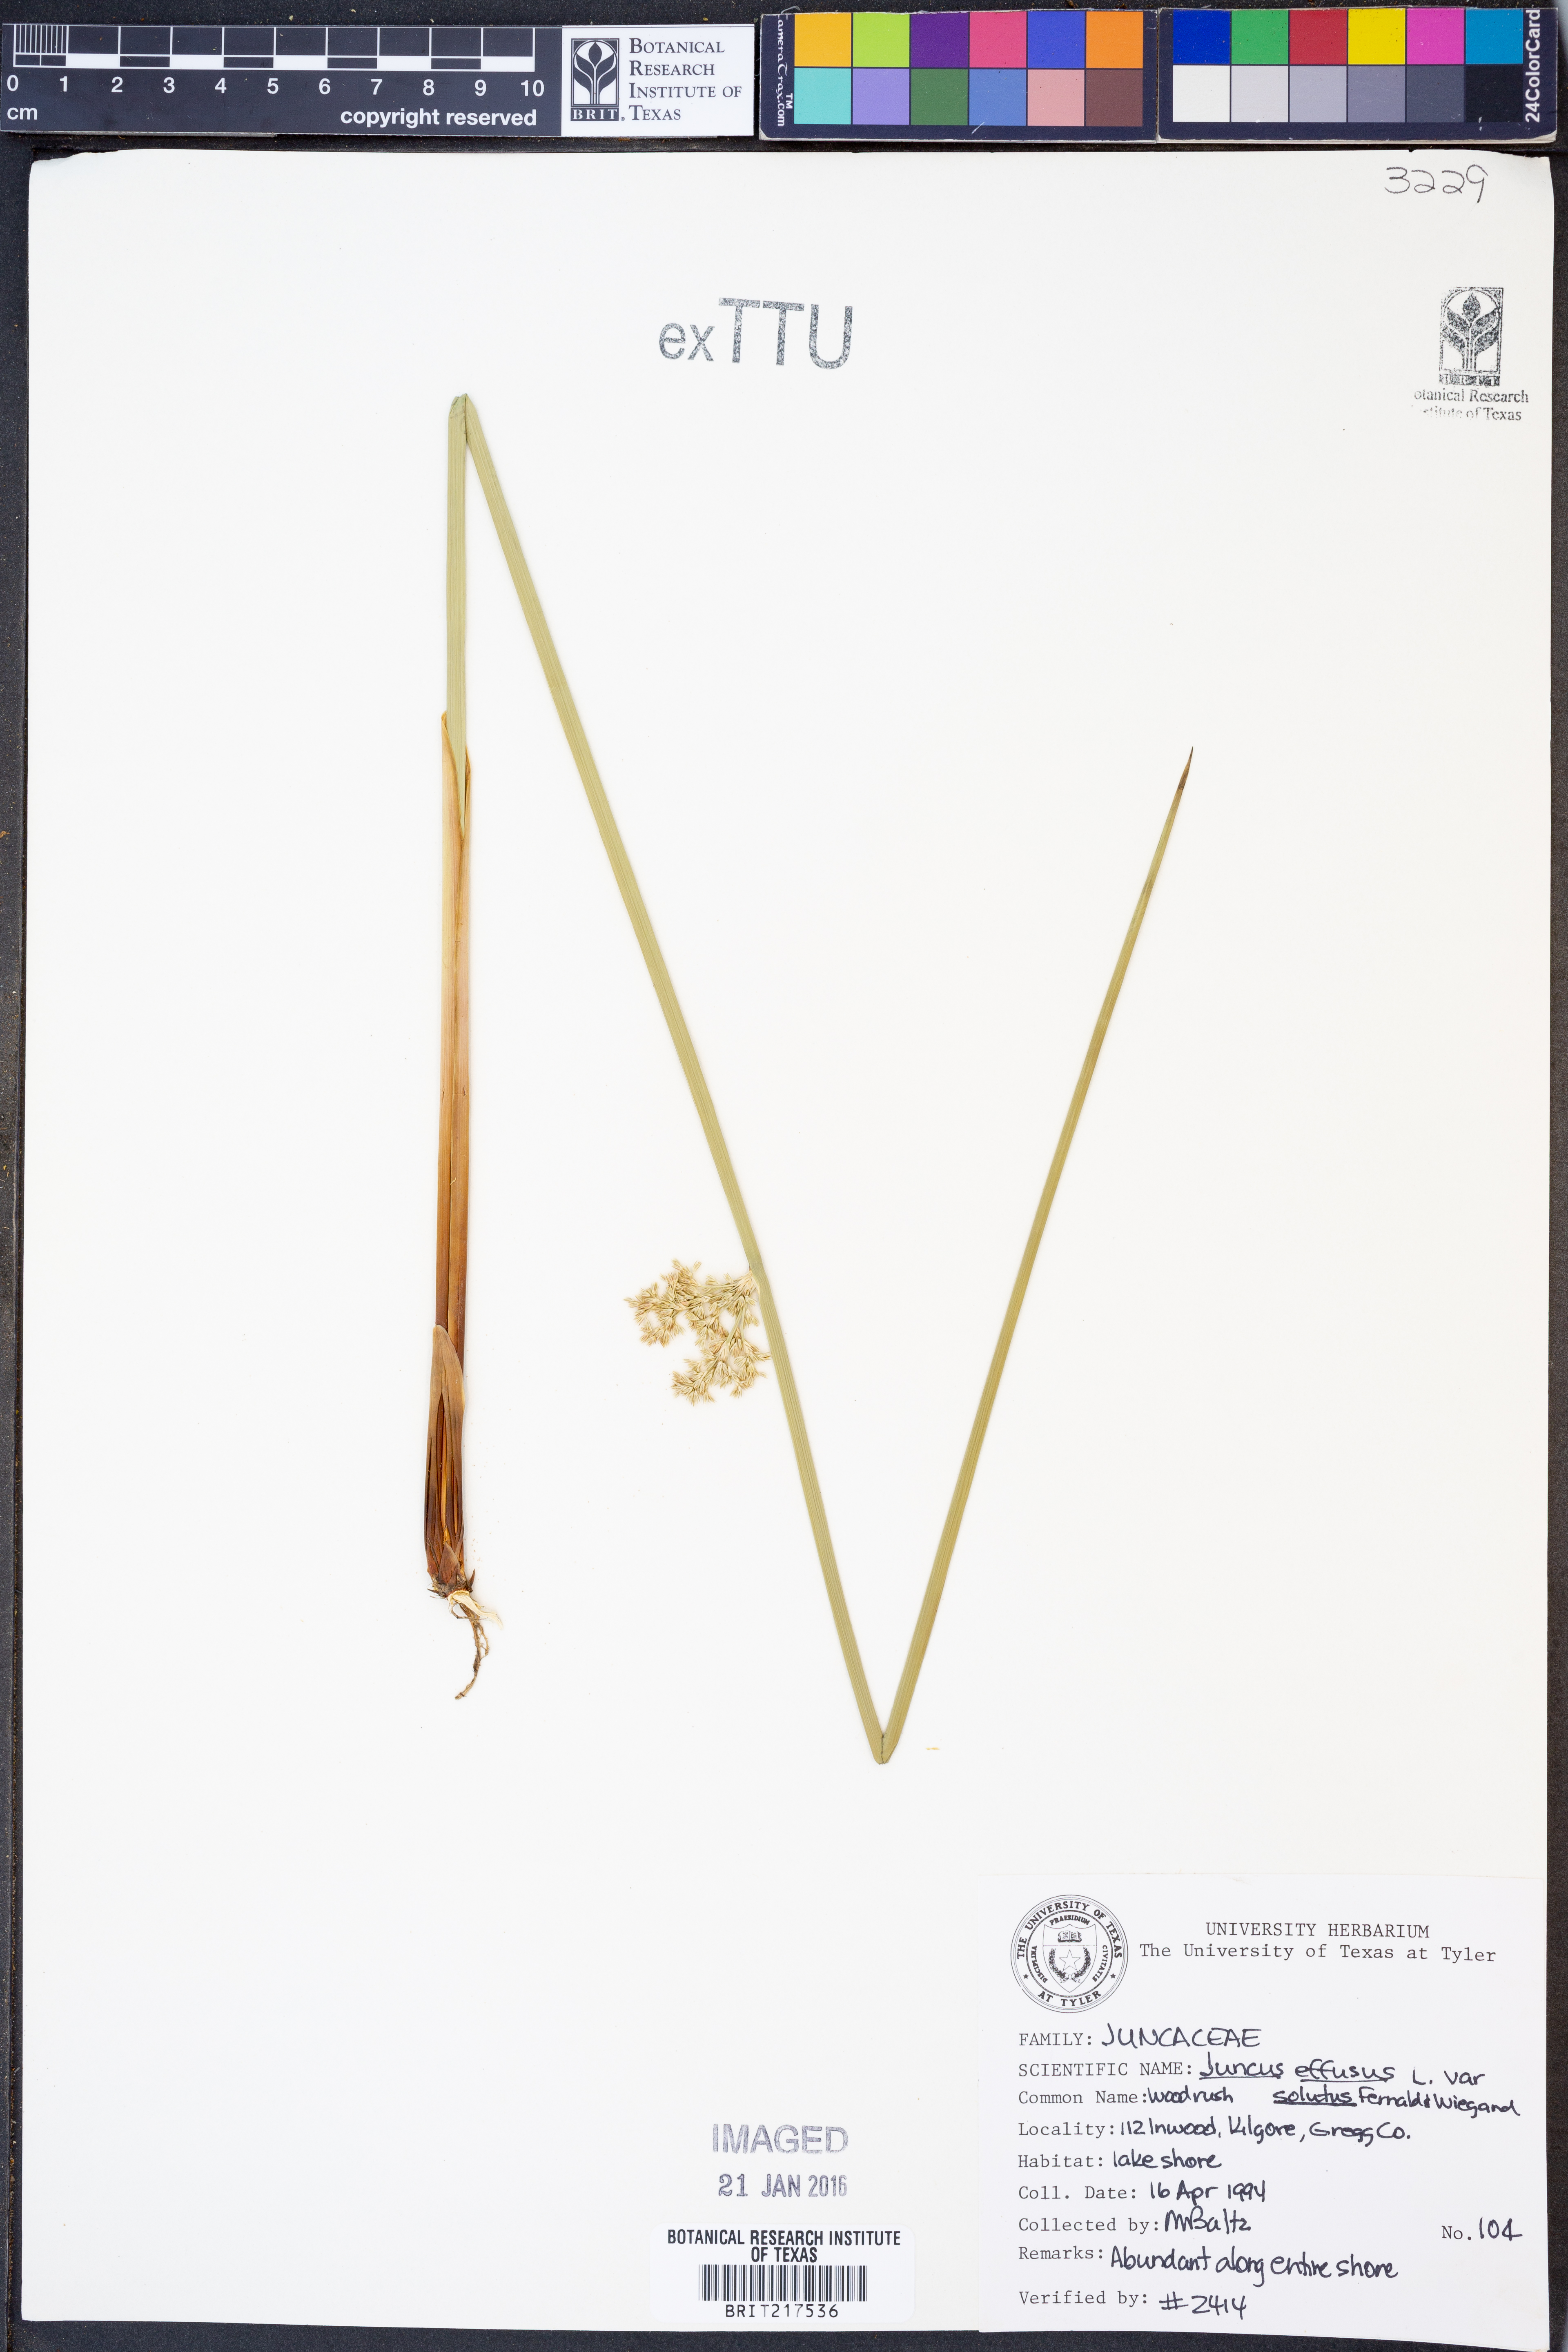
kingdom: Plantae
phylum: Tracheophyta
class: Liliopsida
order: Poales
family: Juncaceae
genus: Juncus
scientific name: Juncus effusus
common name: Soft rush
